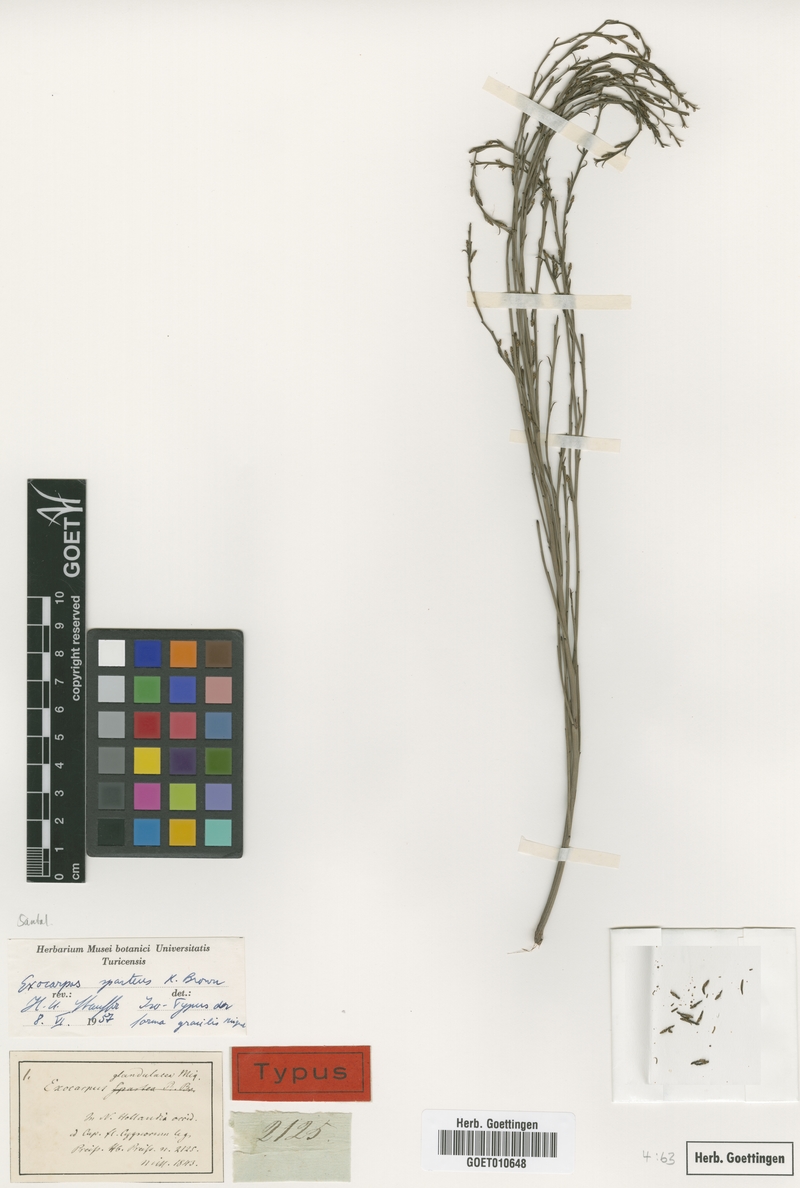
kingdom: Plantae
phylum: Tracheophyta
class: Magnoliopsida
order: Santalales
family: Santalaceae
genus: Exocarpos
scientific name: Exocarpos sparteus
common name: Broom ballart
